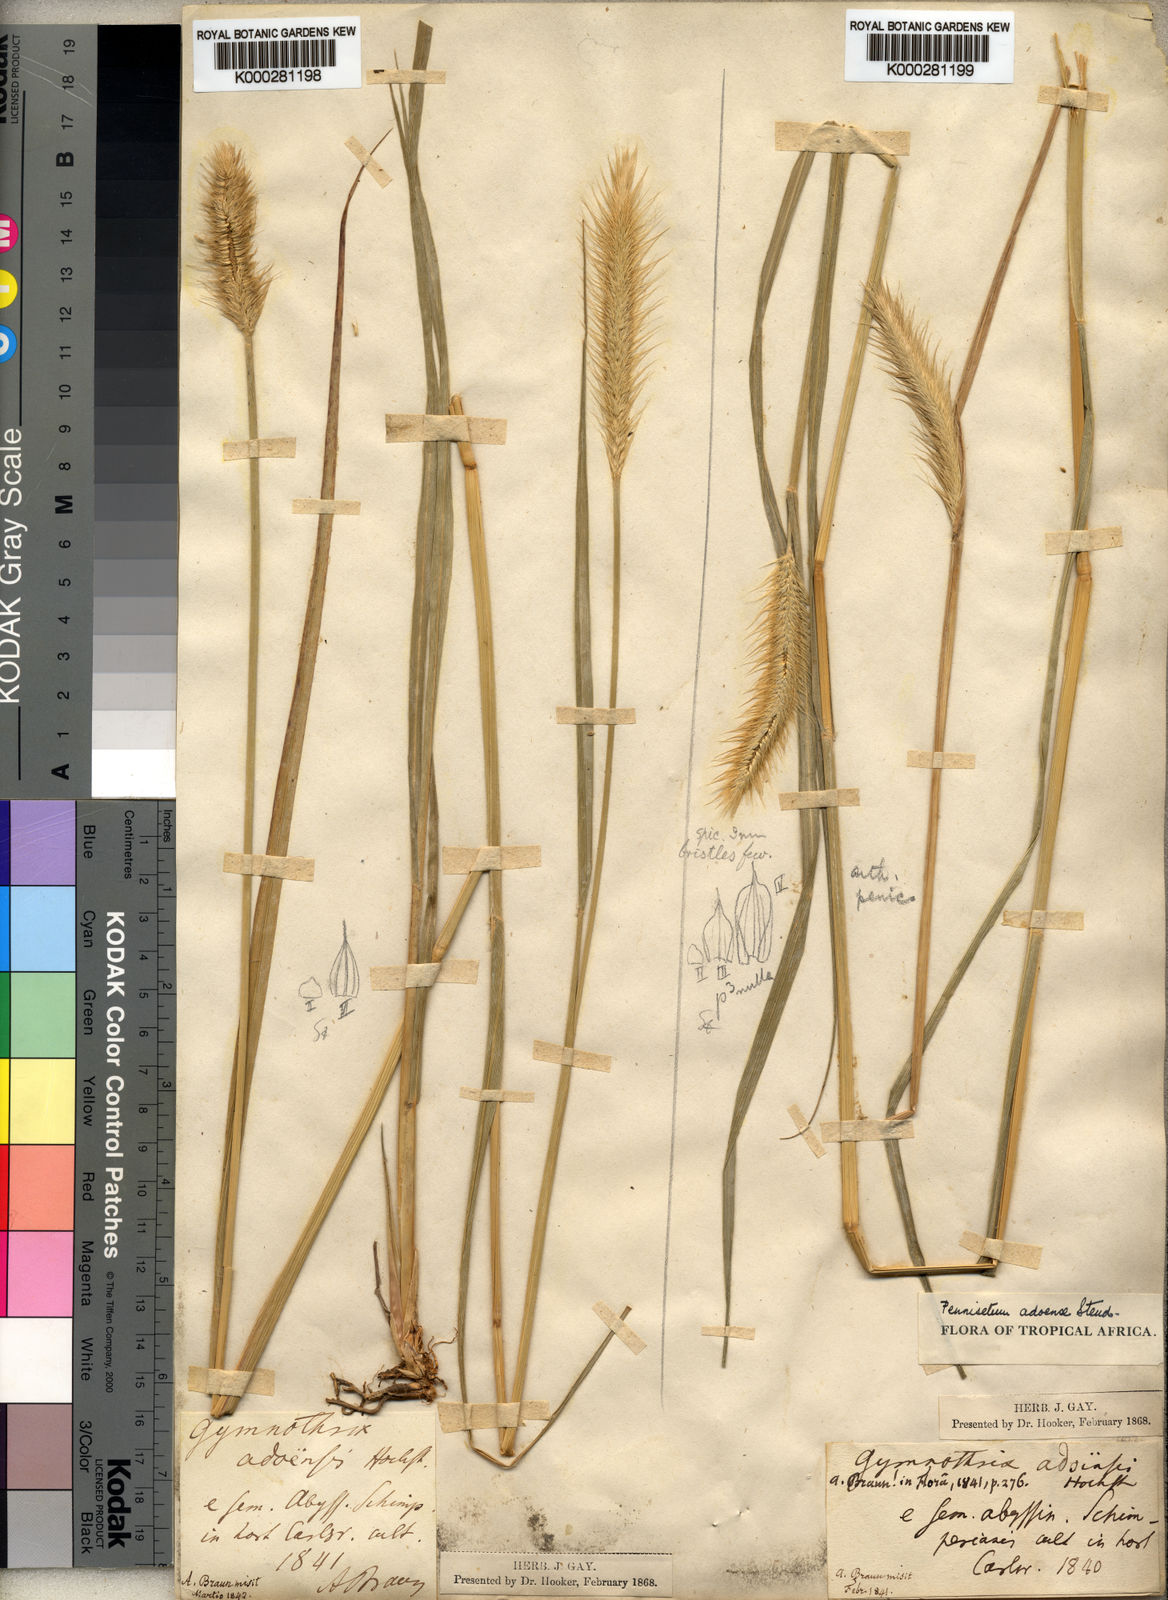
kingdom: Plantae
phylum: Tracheophyta
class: Liliopsida
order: Poales
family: Poaceae
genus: Cenchrus
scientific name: Cenchrus petiolaris
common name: Grass
